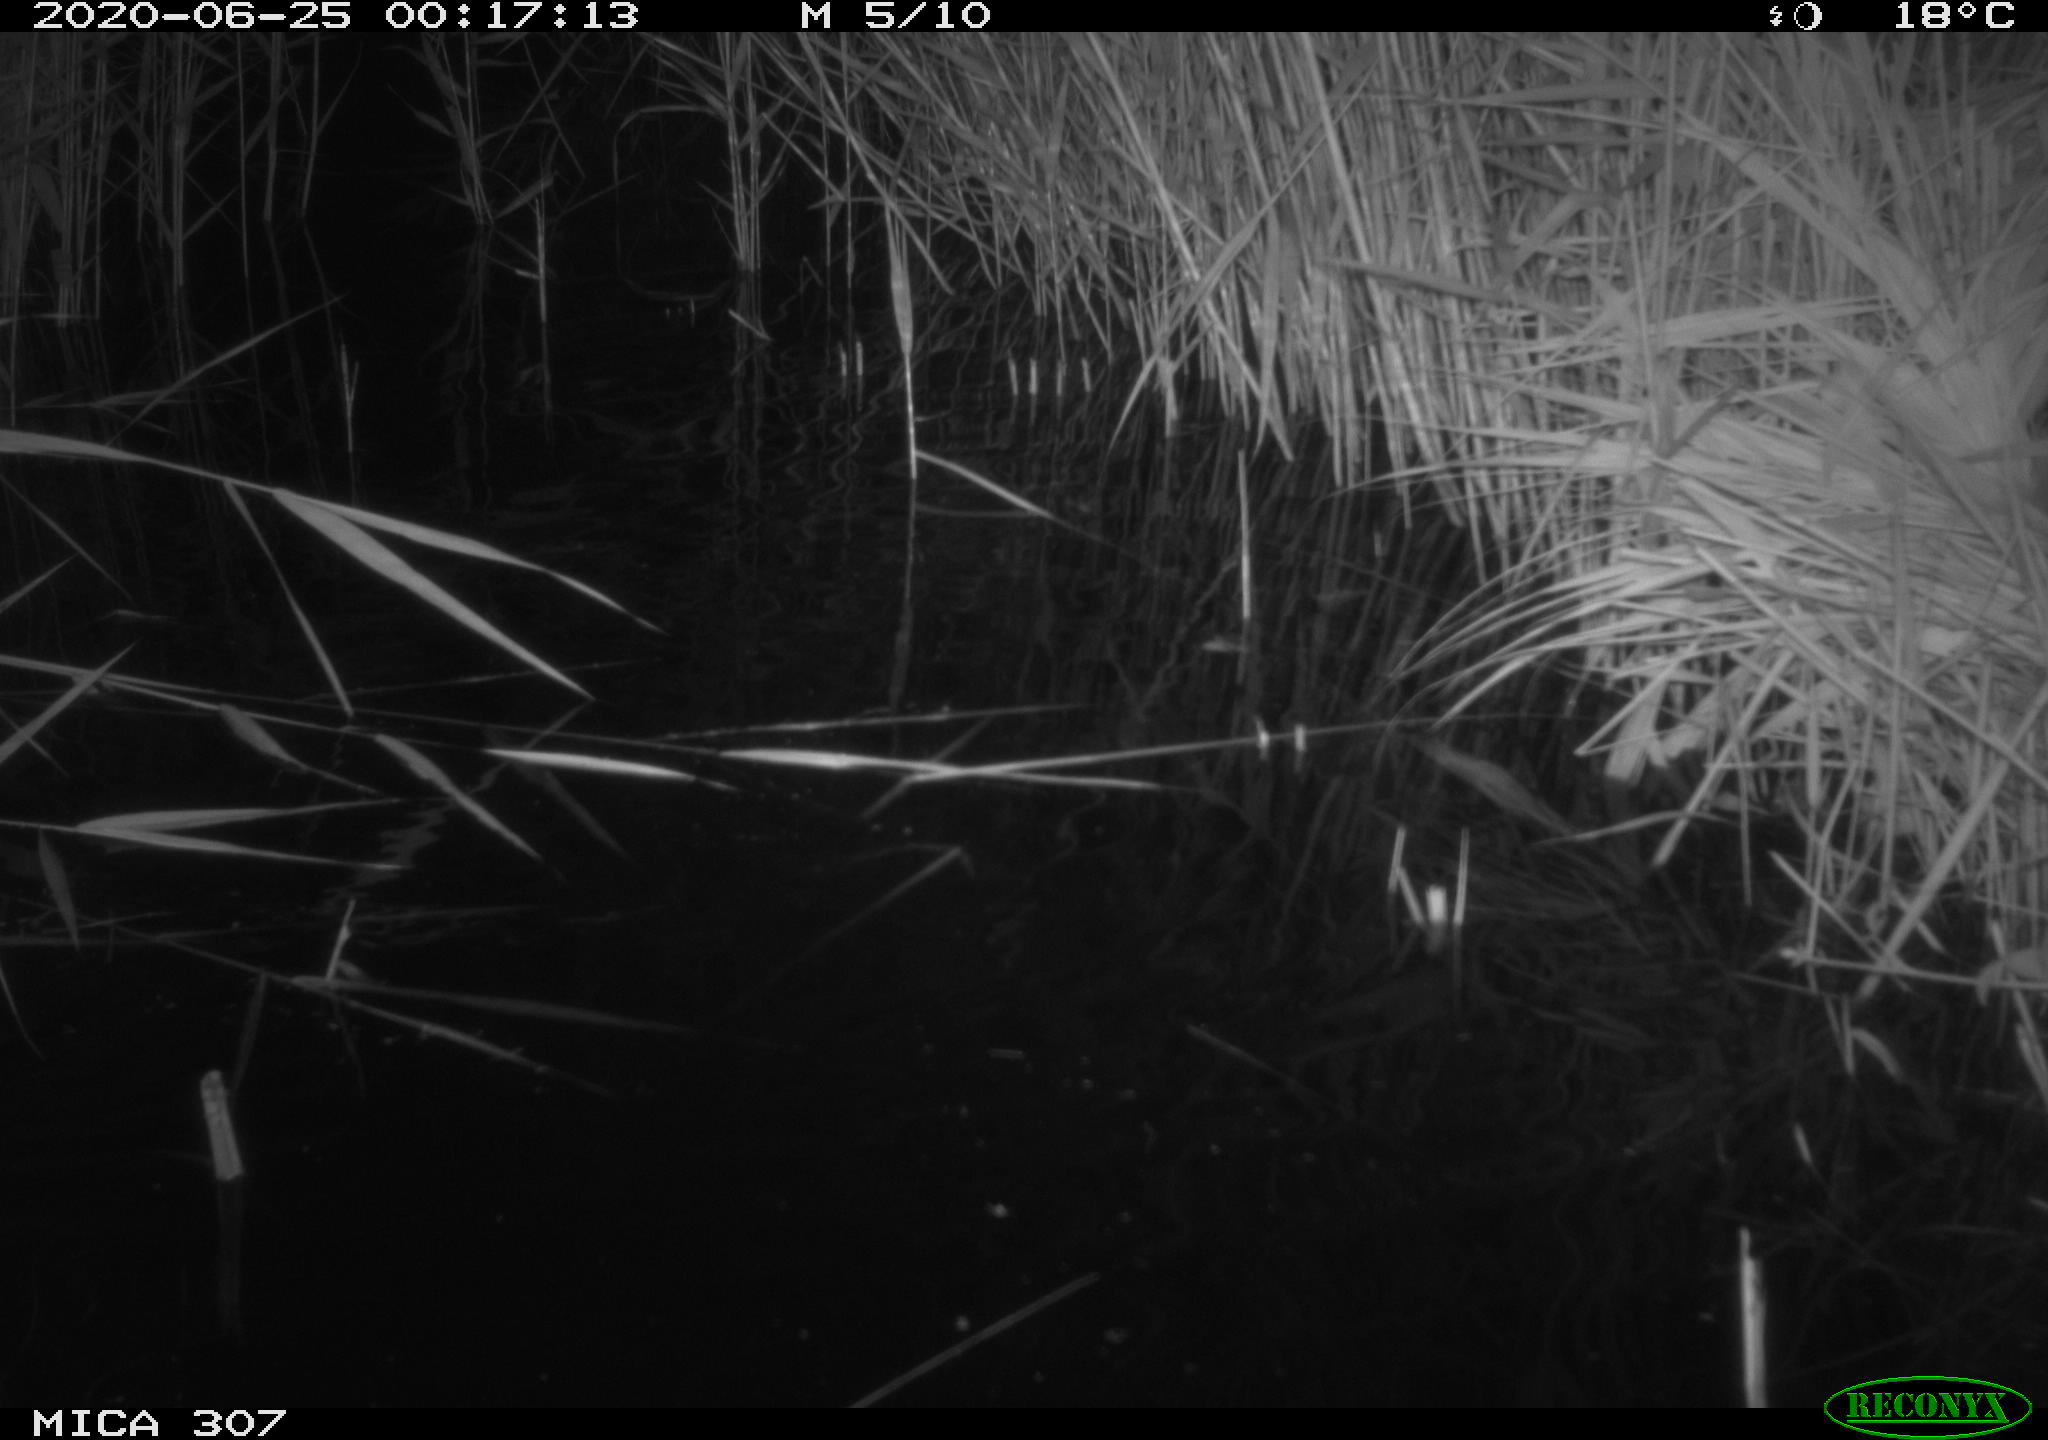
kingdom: Animalia
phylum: Chordata
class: Mammalia
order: Rodentia
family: Muridae
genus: Rattus
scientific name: Rattus norvegicus
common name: Brown rat
